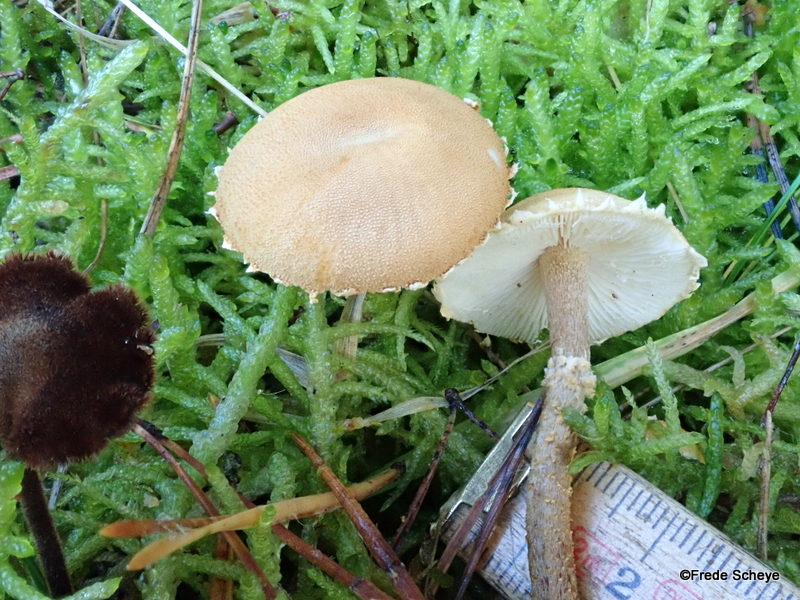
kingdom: Fungi
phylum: Basidiomycota
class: Agaricomycetes
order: Agaricales
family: Tricholomataceae
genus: Cystoderma
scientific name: Cystoderma amianthinum
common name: okkergul grynhat
